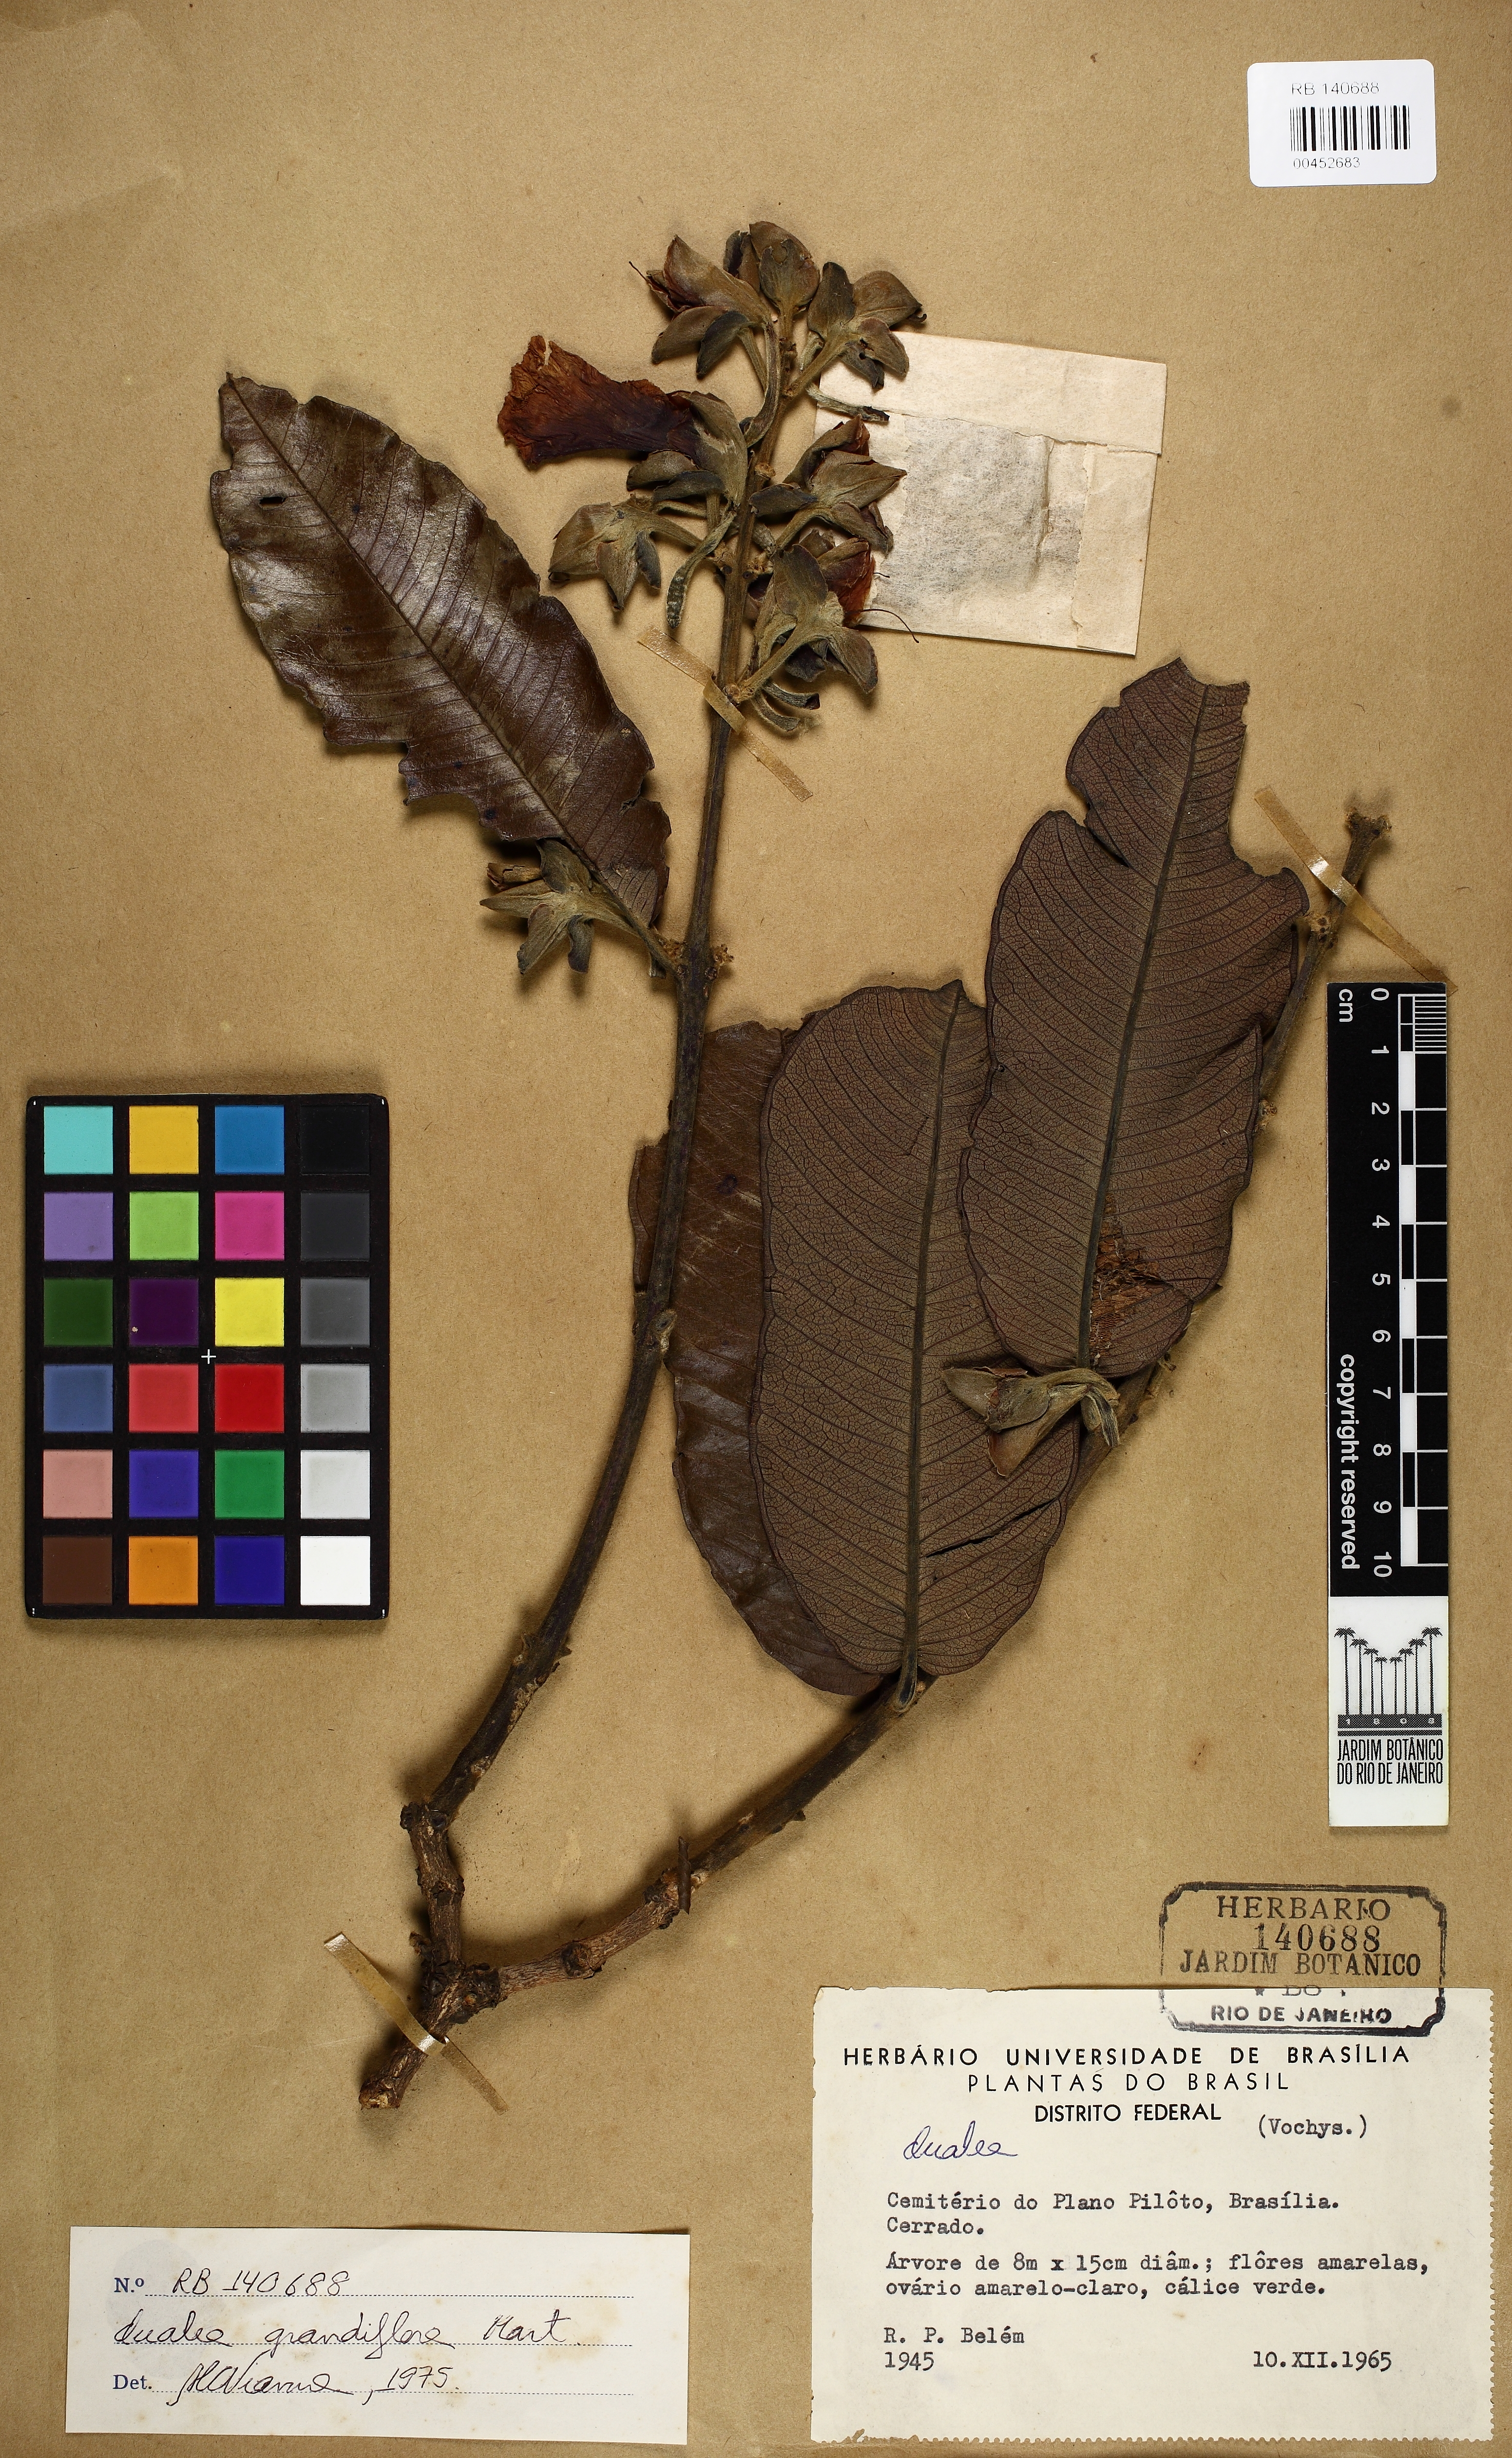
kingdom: Plantae
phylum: Tracheophyta
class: Magnoliopsida
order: Myrtales
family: Vochysiaceae
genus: Qualea
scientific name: Qualea grandiflora
